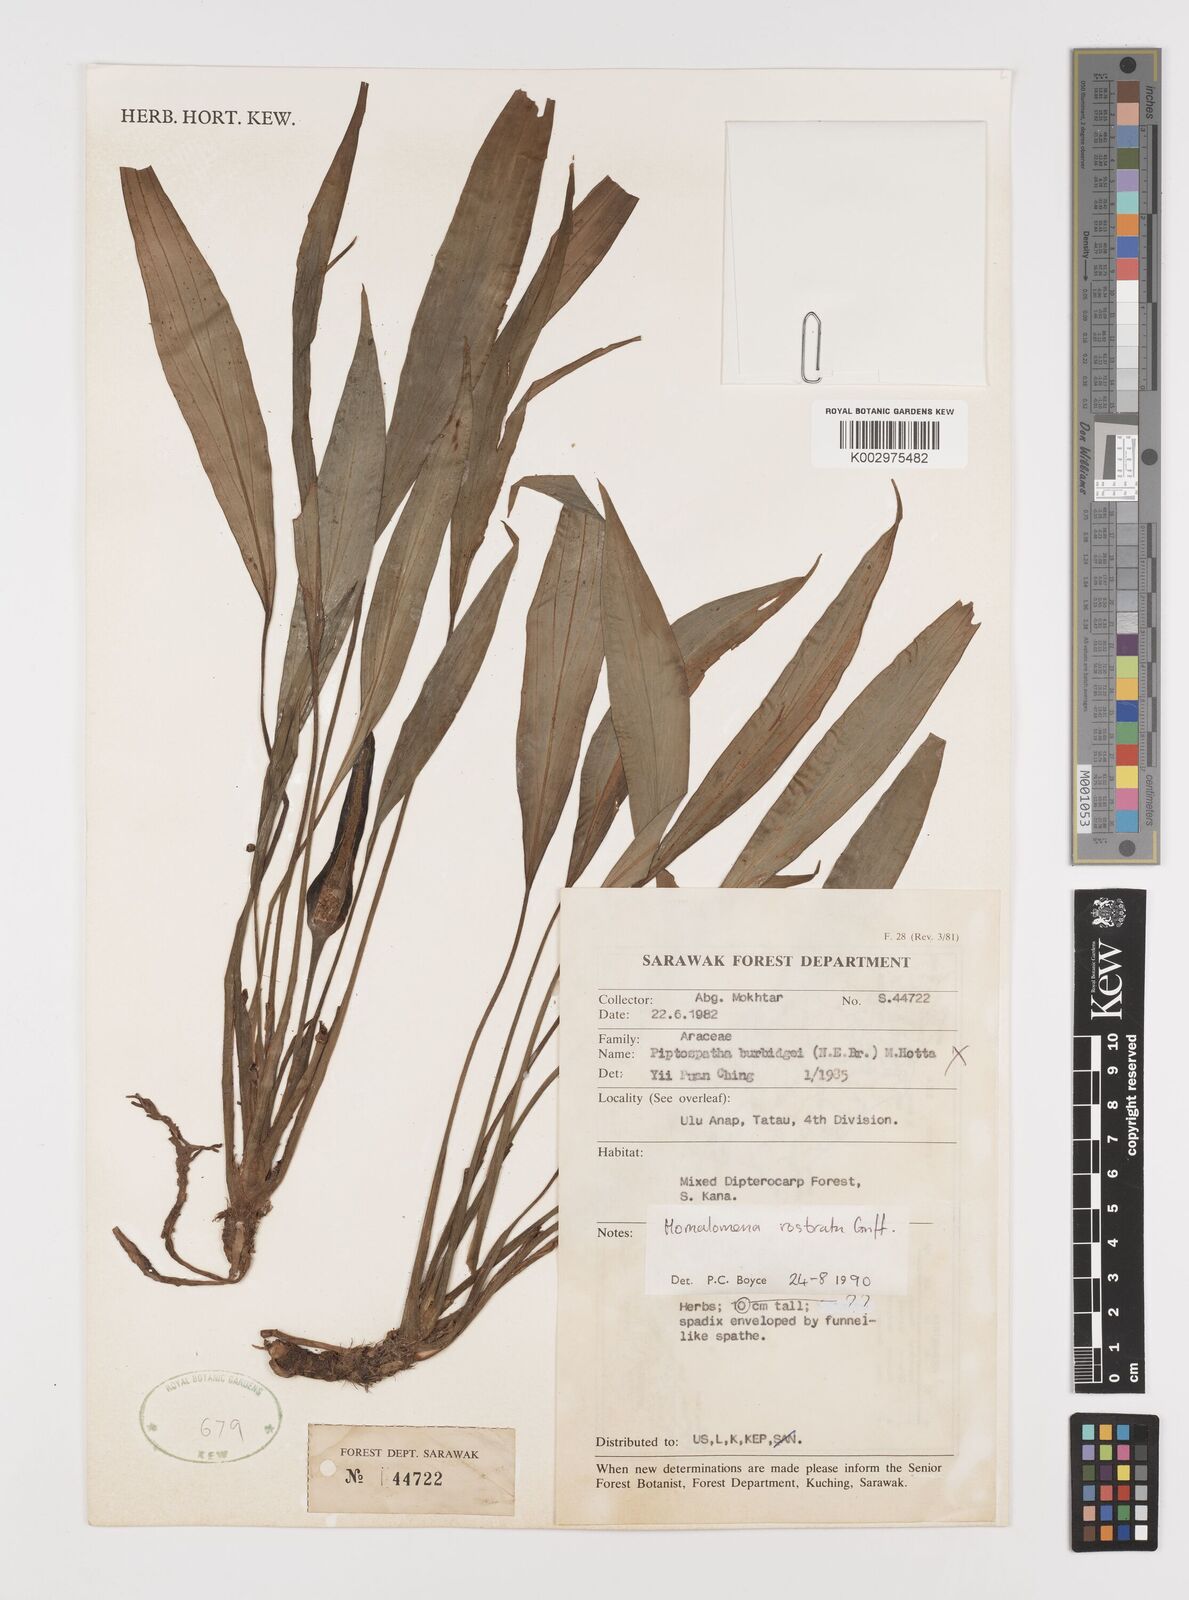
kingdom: Plantae
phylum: Tracheophyta
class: Liliopsida
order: Alismatales
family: Araceae
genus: Homalomena
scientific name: Homalomena rostrata
